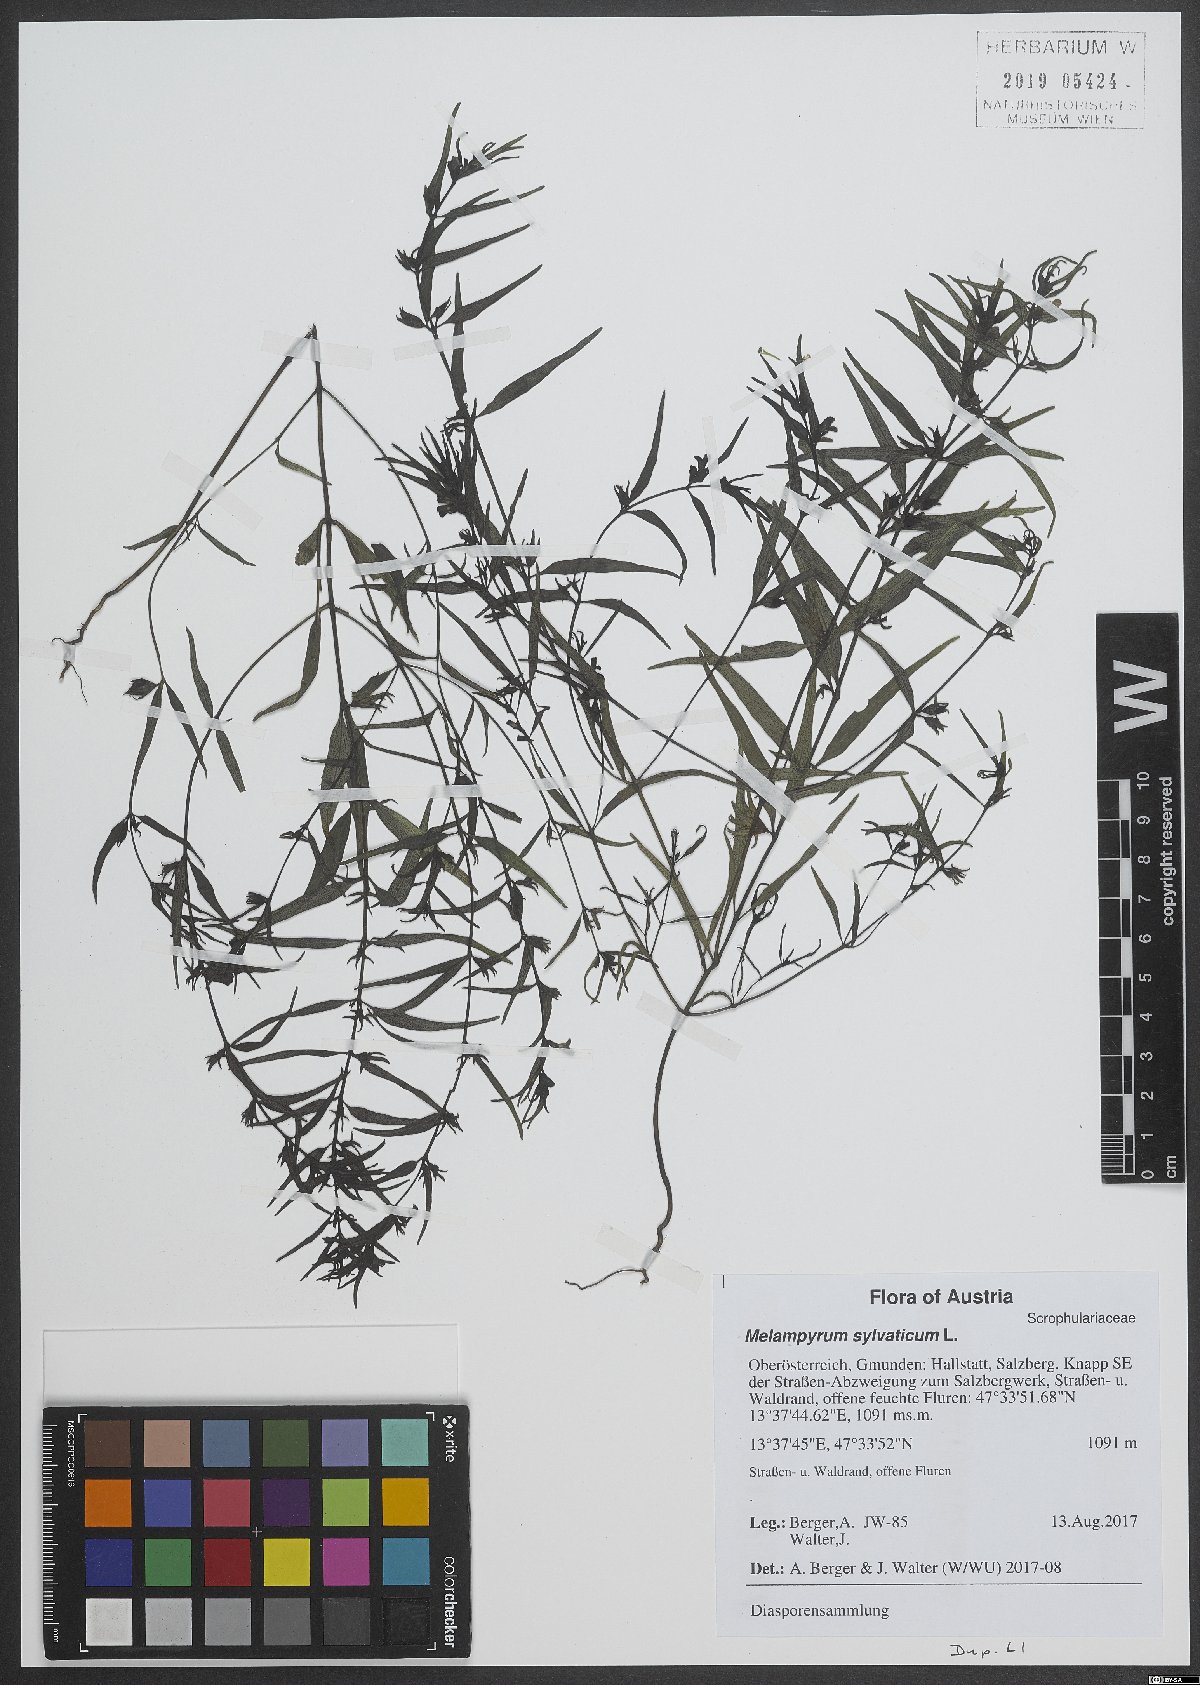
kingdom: Plantae
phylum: Tracheophyta
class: Magnoliopsida
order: Lamiales
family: Orobanchaceae
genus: Melampyrum
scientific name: Melampyrum sylvaticum
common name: Small cow-wheat
